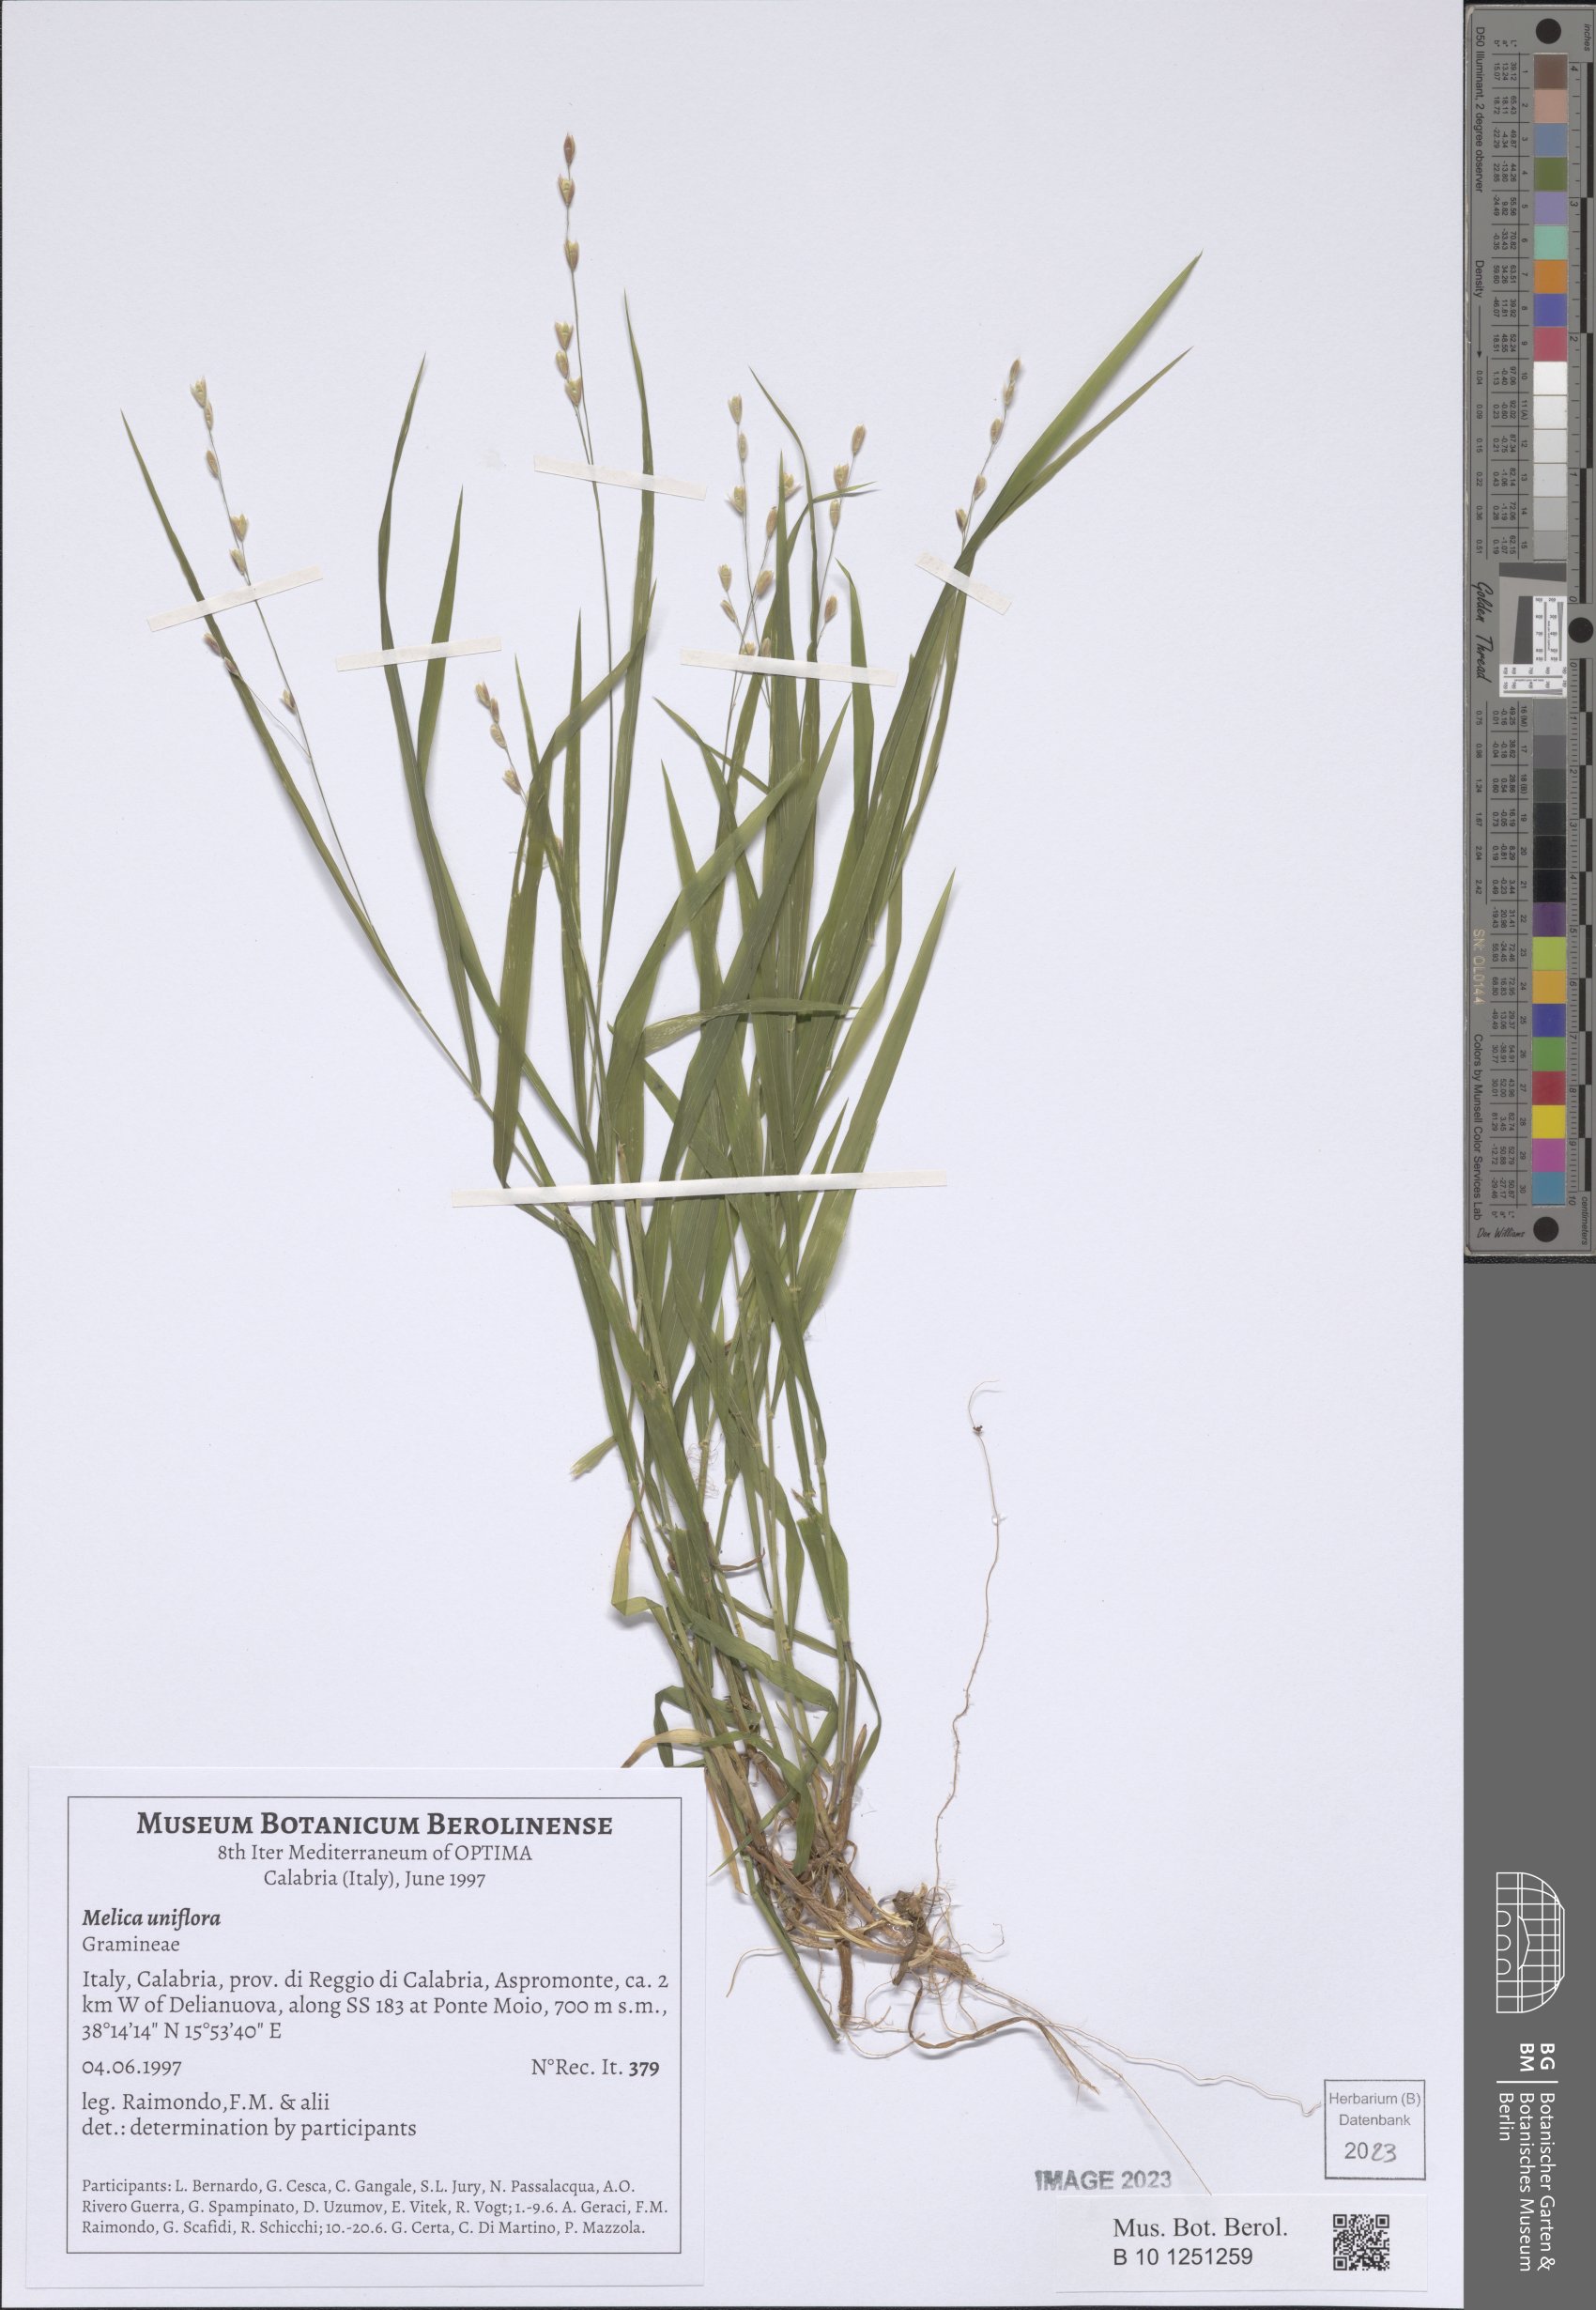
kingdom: Plantae
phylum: Tracheophyta
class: Liliopsida
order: Poales
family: Poaceae
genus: Melica
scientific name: Melica uniflora
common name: Wood melick
